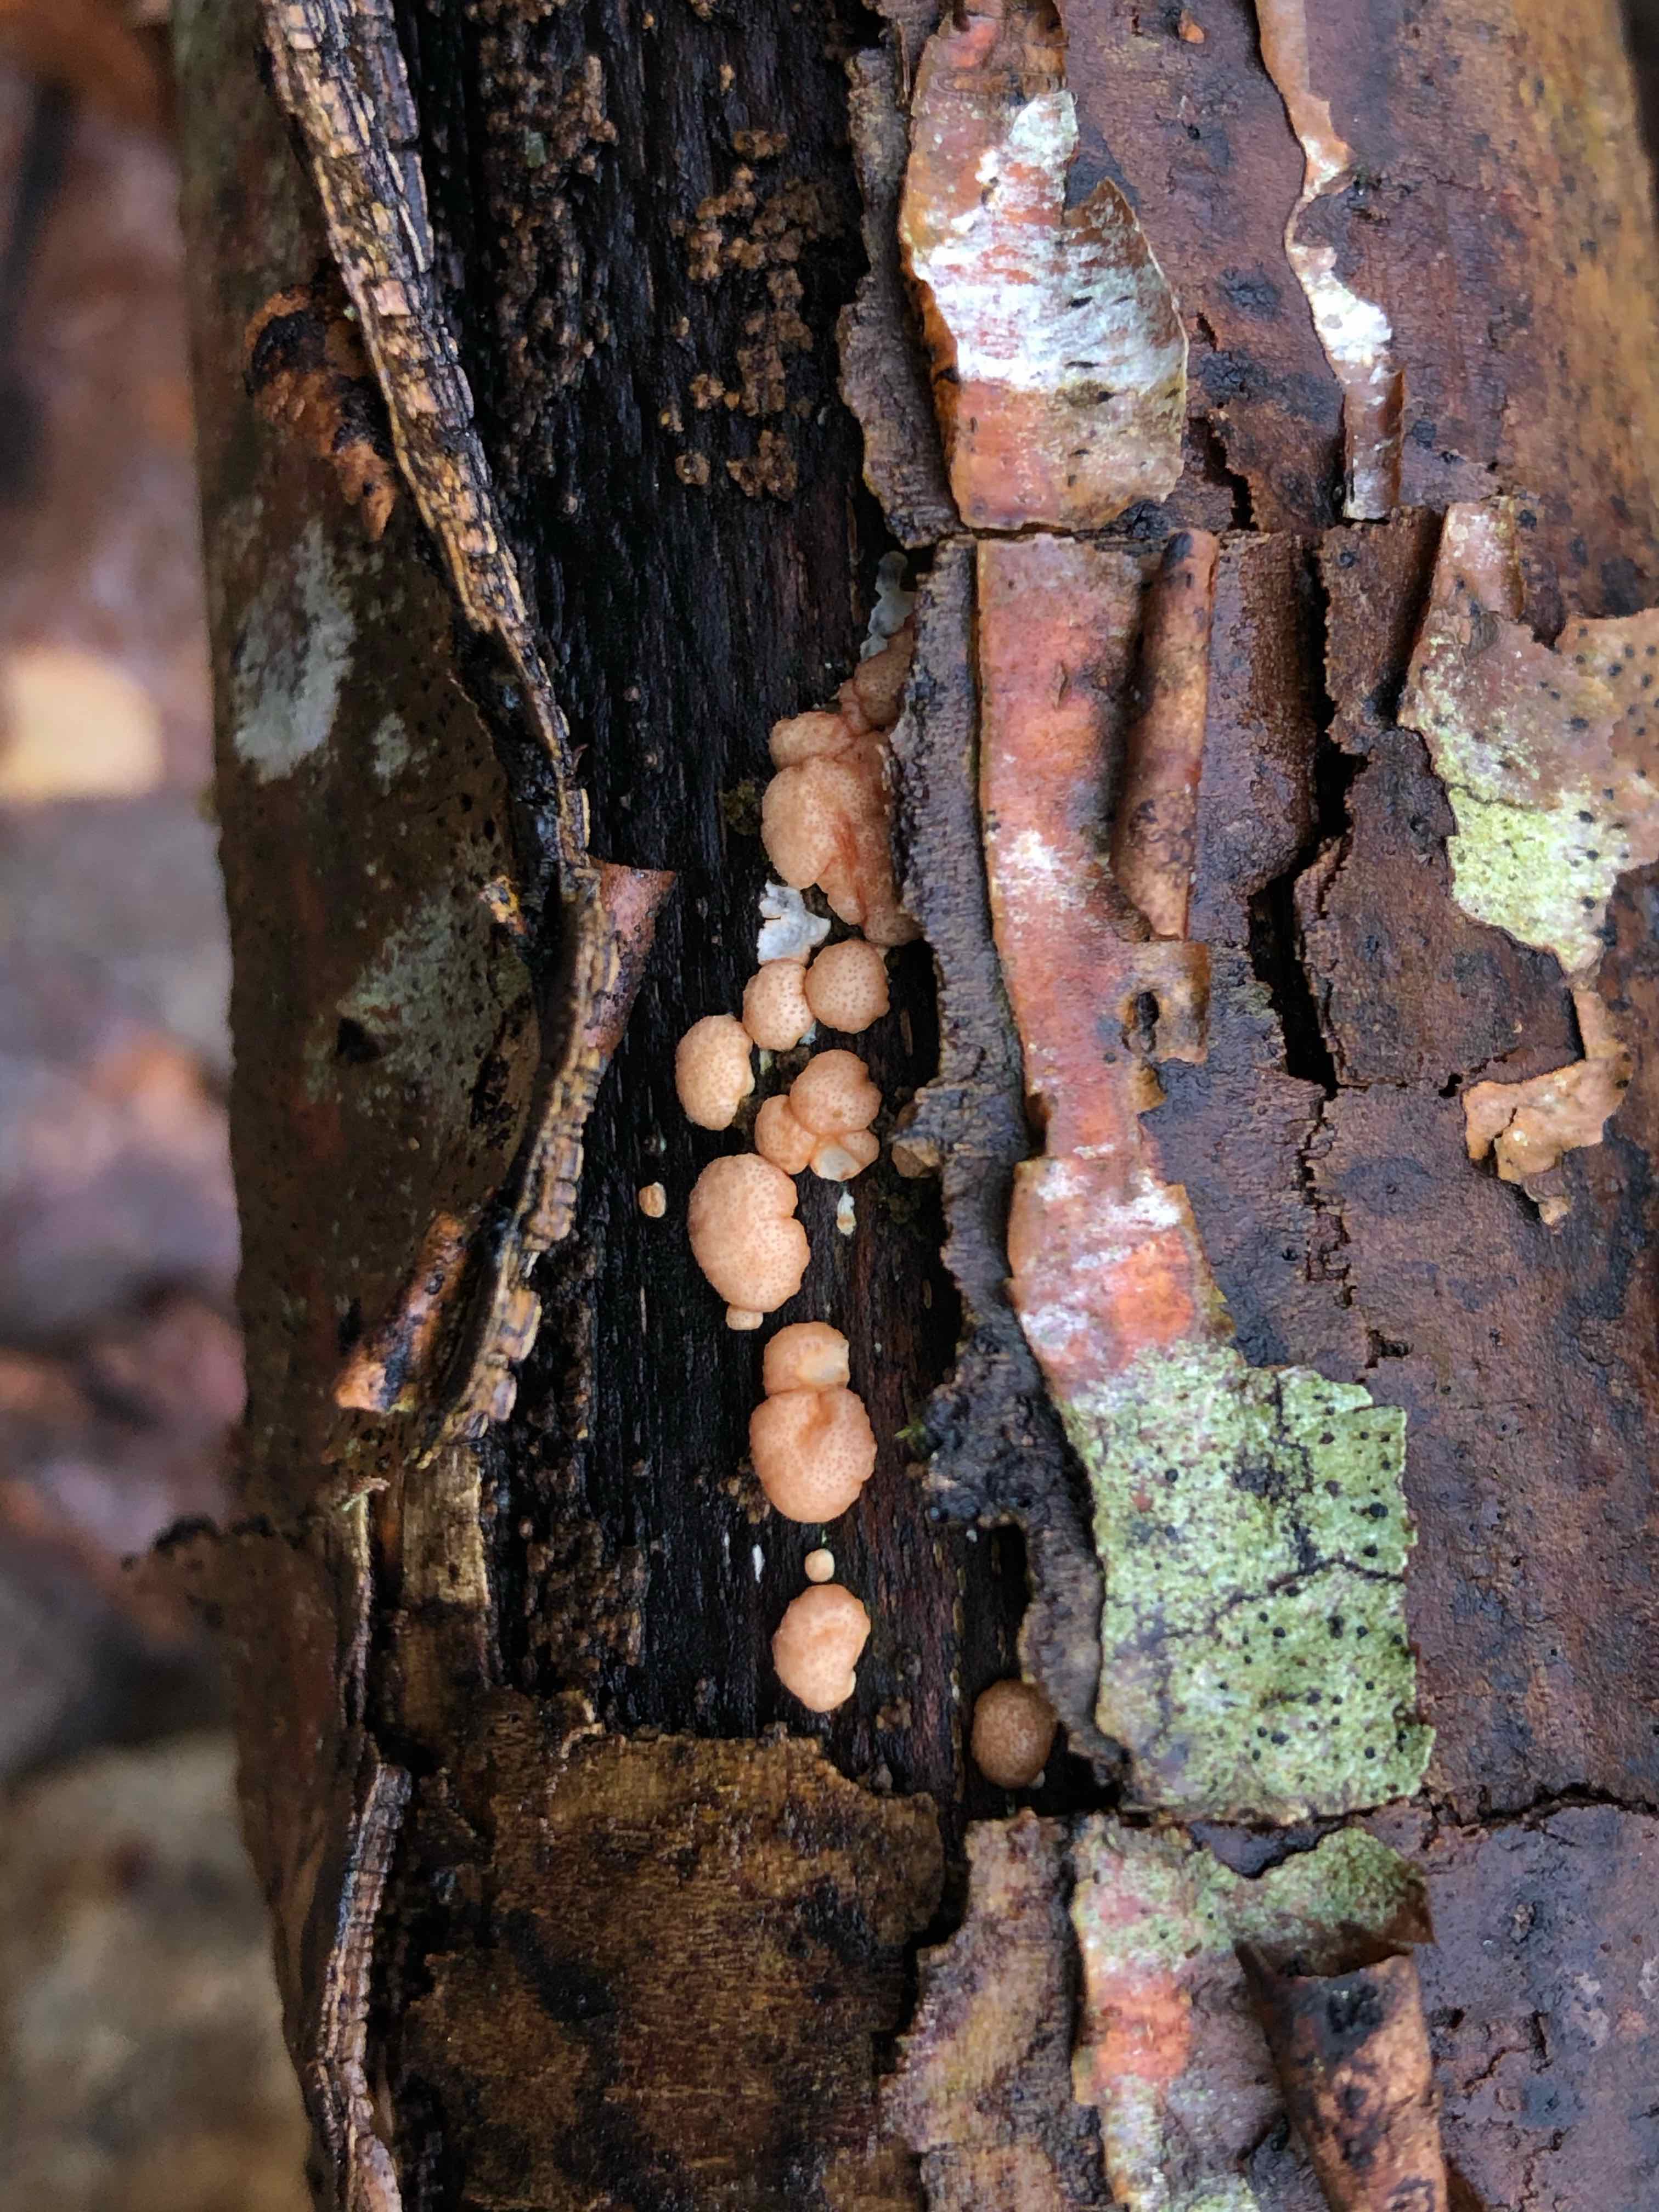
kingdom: Fungi
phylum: Ascomycota
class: Sordariomycetes
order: Hypocreales
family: Hypocreaceae
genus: Trichoderma
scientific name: Trichoderma europaeum
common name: rosabrun kødkerne
